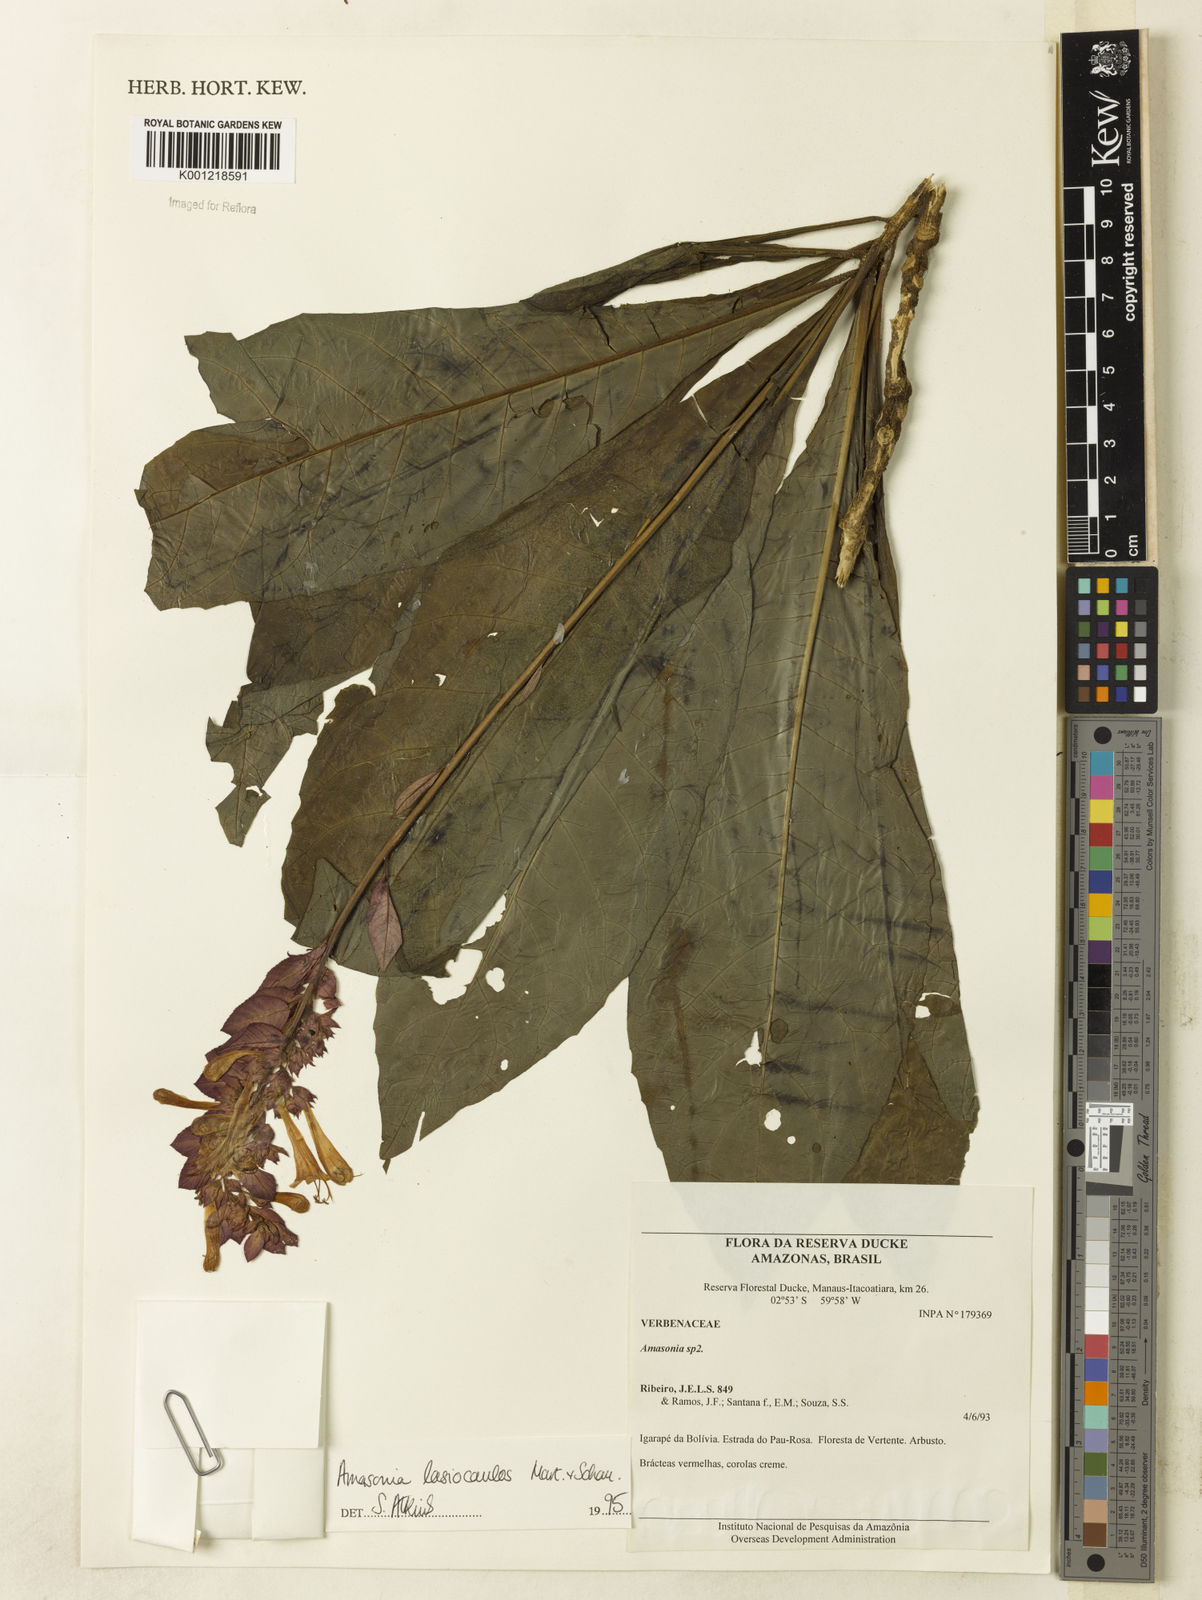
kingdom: Plantae
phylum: Tracheophyta
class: Magnoliopsida
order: Lamiales
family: Lamiaceae
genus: Amasonia
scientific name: Amasonia
